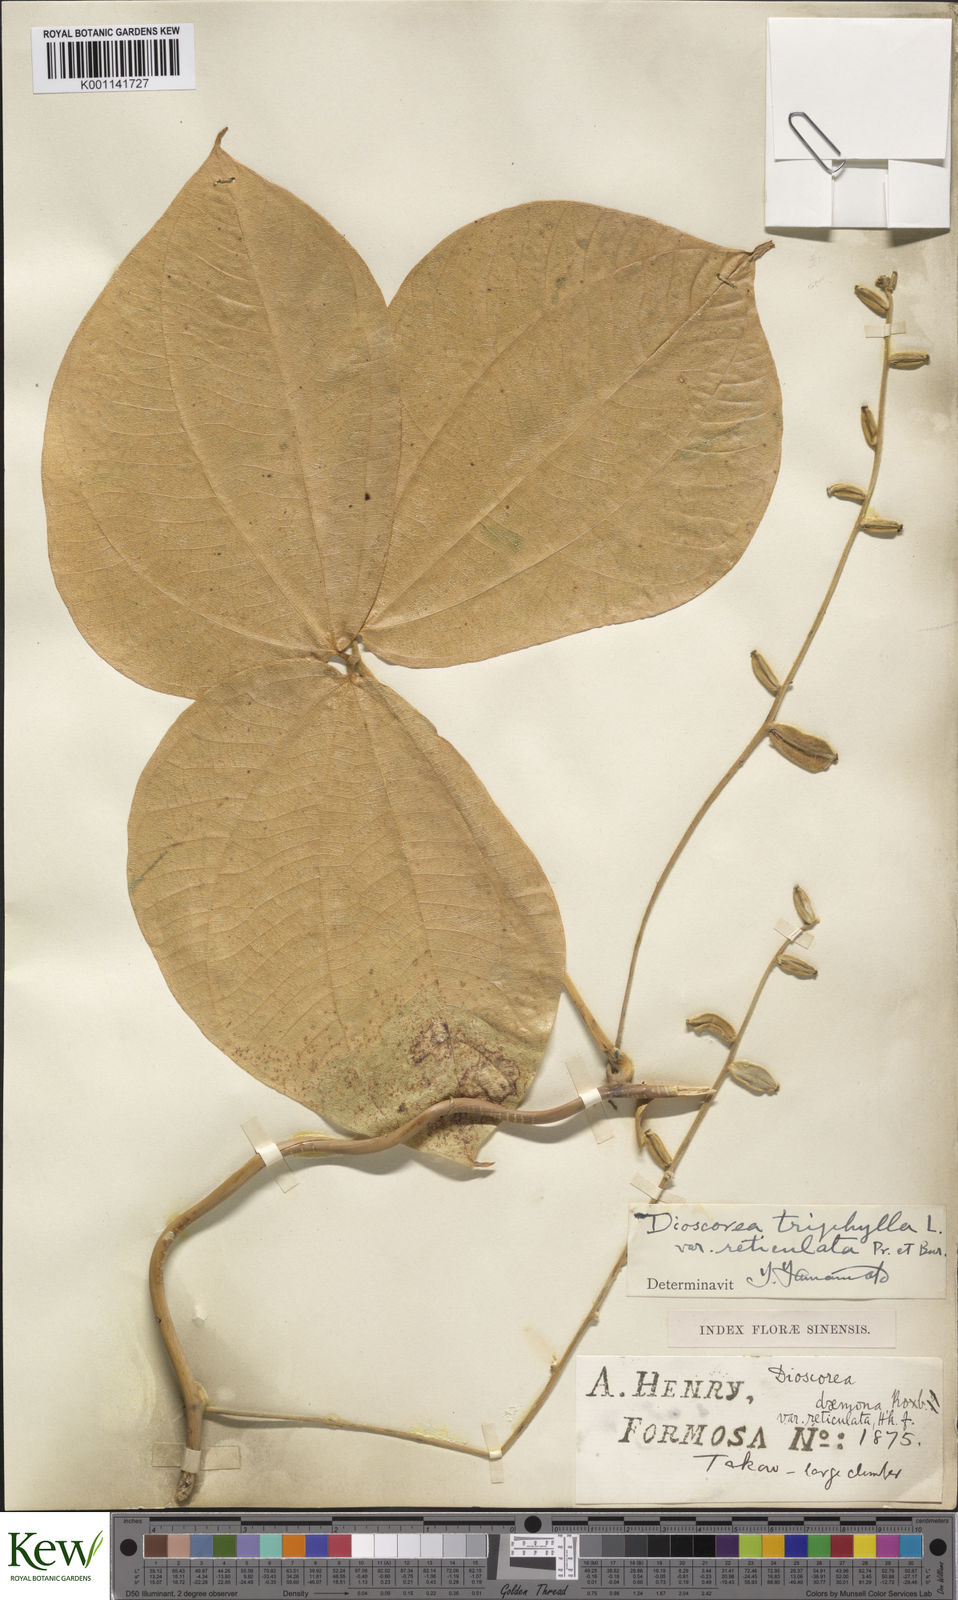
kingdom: Plantae
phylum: Tracheophyta
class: Liliopsida
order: Dioscoreales
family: Dioscoreaceae
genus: Dioscorea
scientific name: Dioscorea hispida
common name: Asiatic bitter yam
